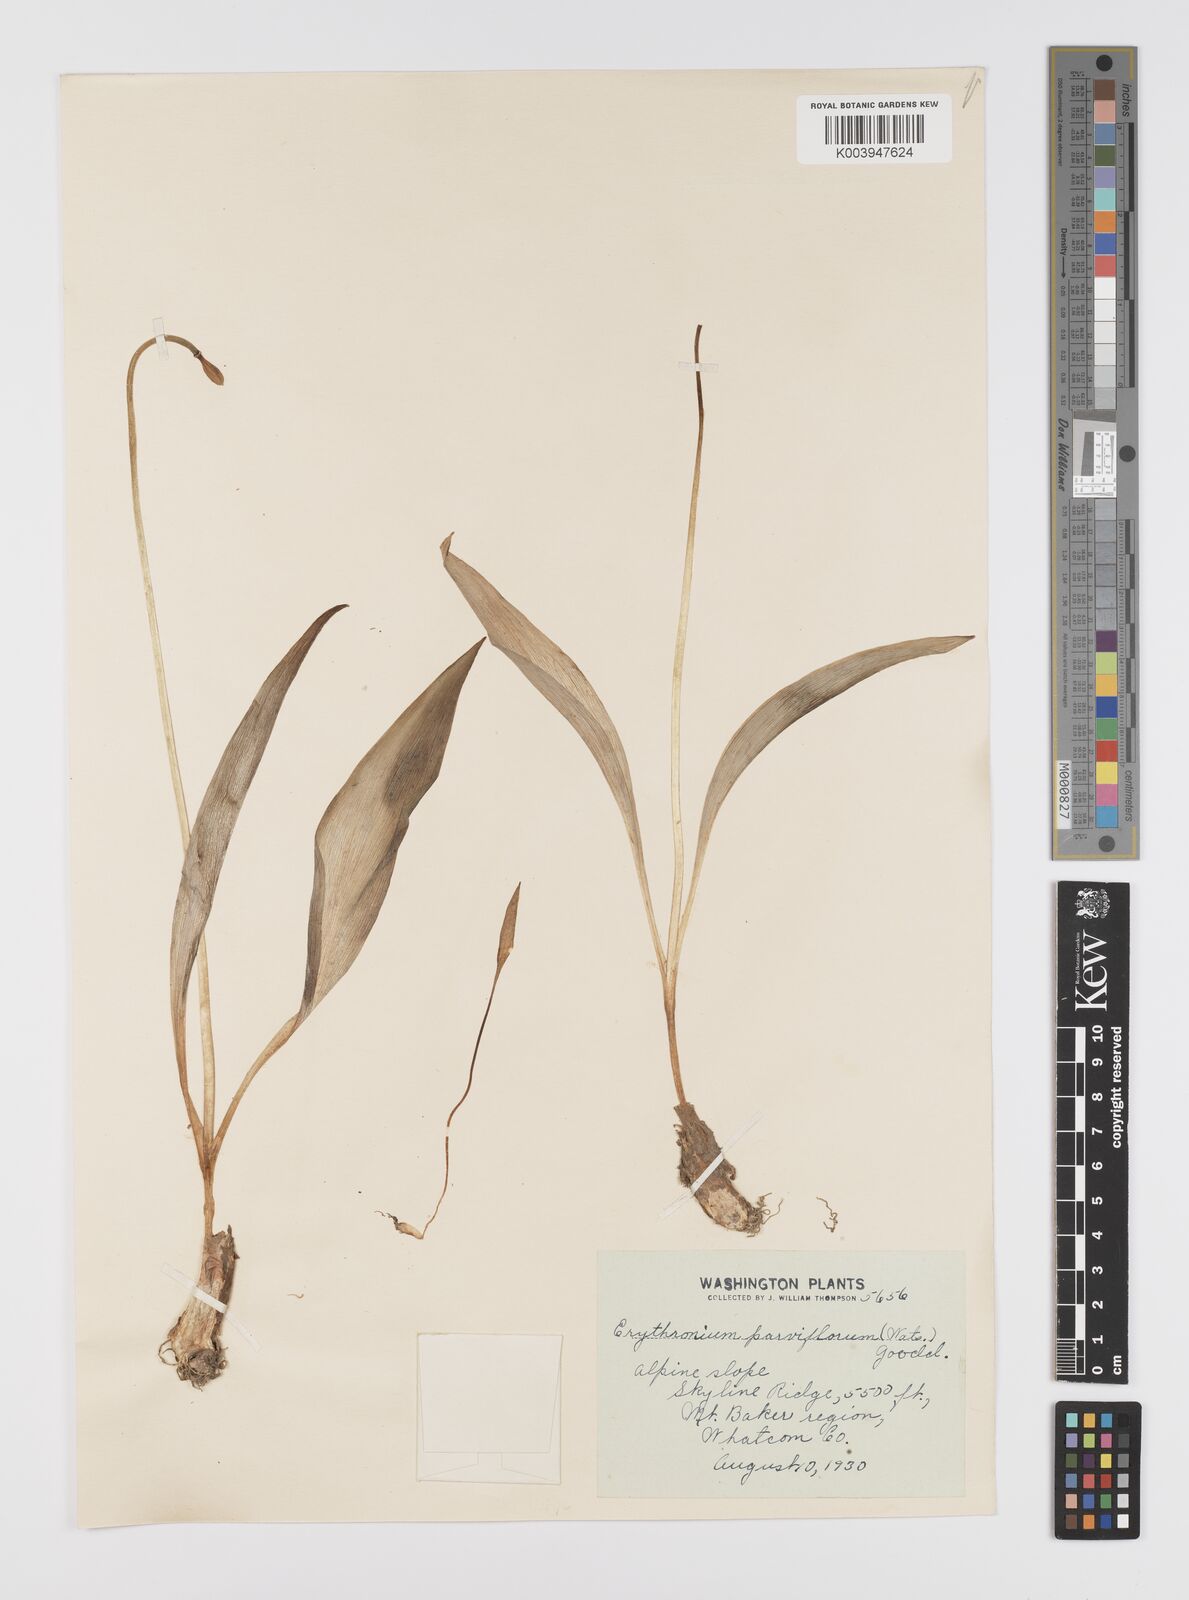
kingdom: Plantae
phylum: Tracheophyta
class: Liliopsida
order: Liliales
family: Liliaceae
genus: Erythronium
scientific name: Erythronium grandiflorum
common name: Avalanche-lily
